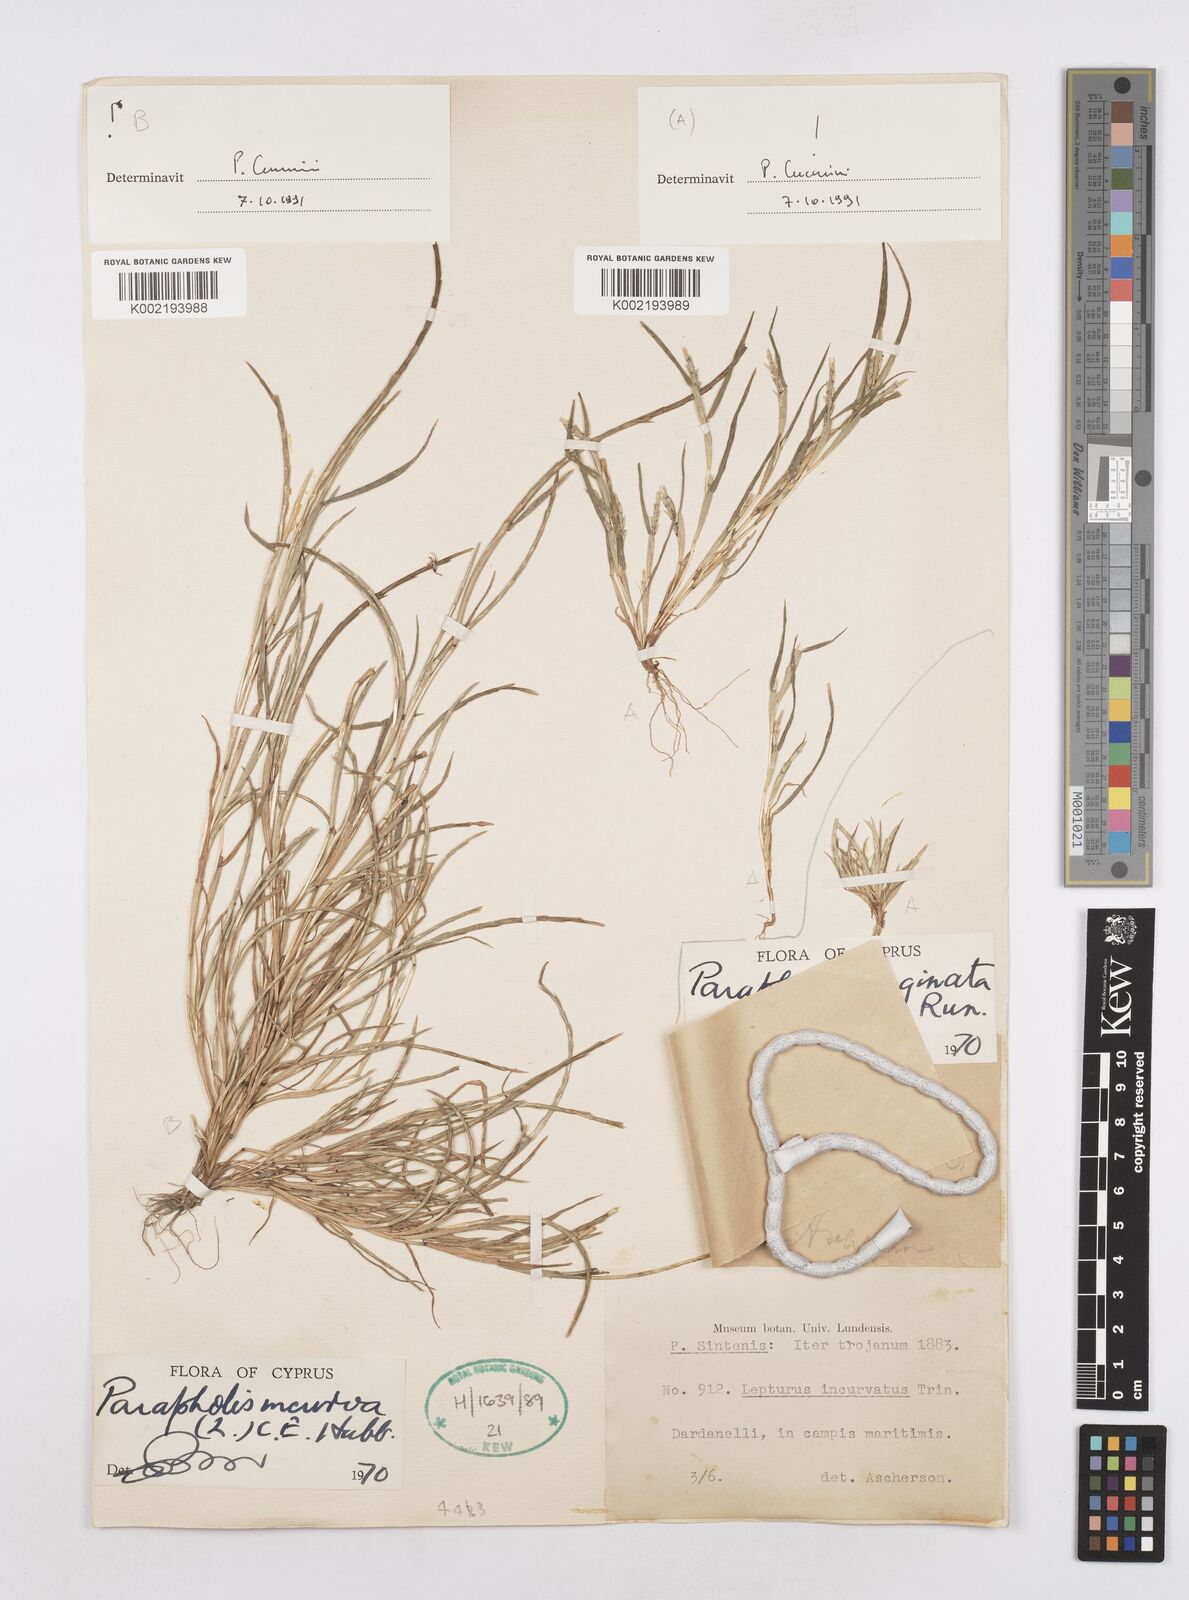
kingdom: Plantae
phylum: Tracheophyta
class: Liliopsida
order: Poales
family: Poaceae
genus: Parapholis
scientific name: Parapholis marginata
